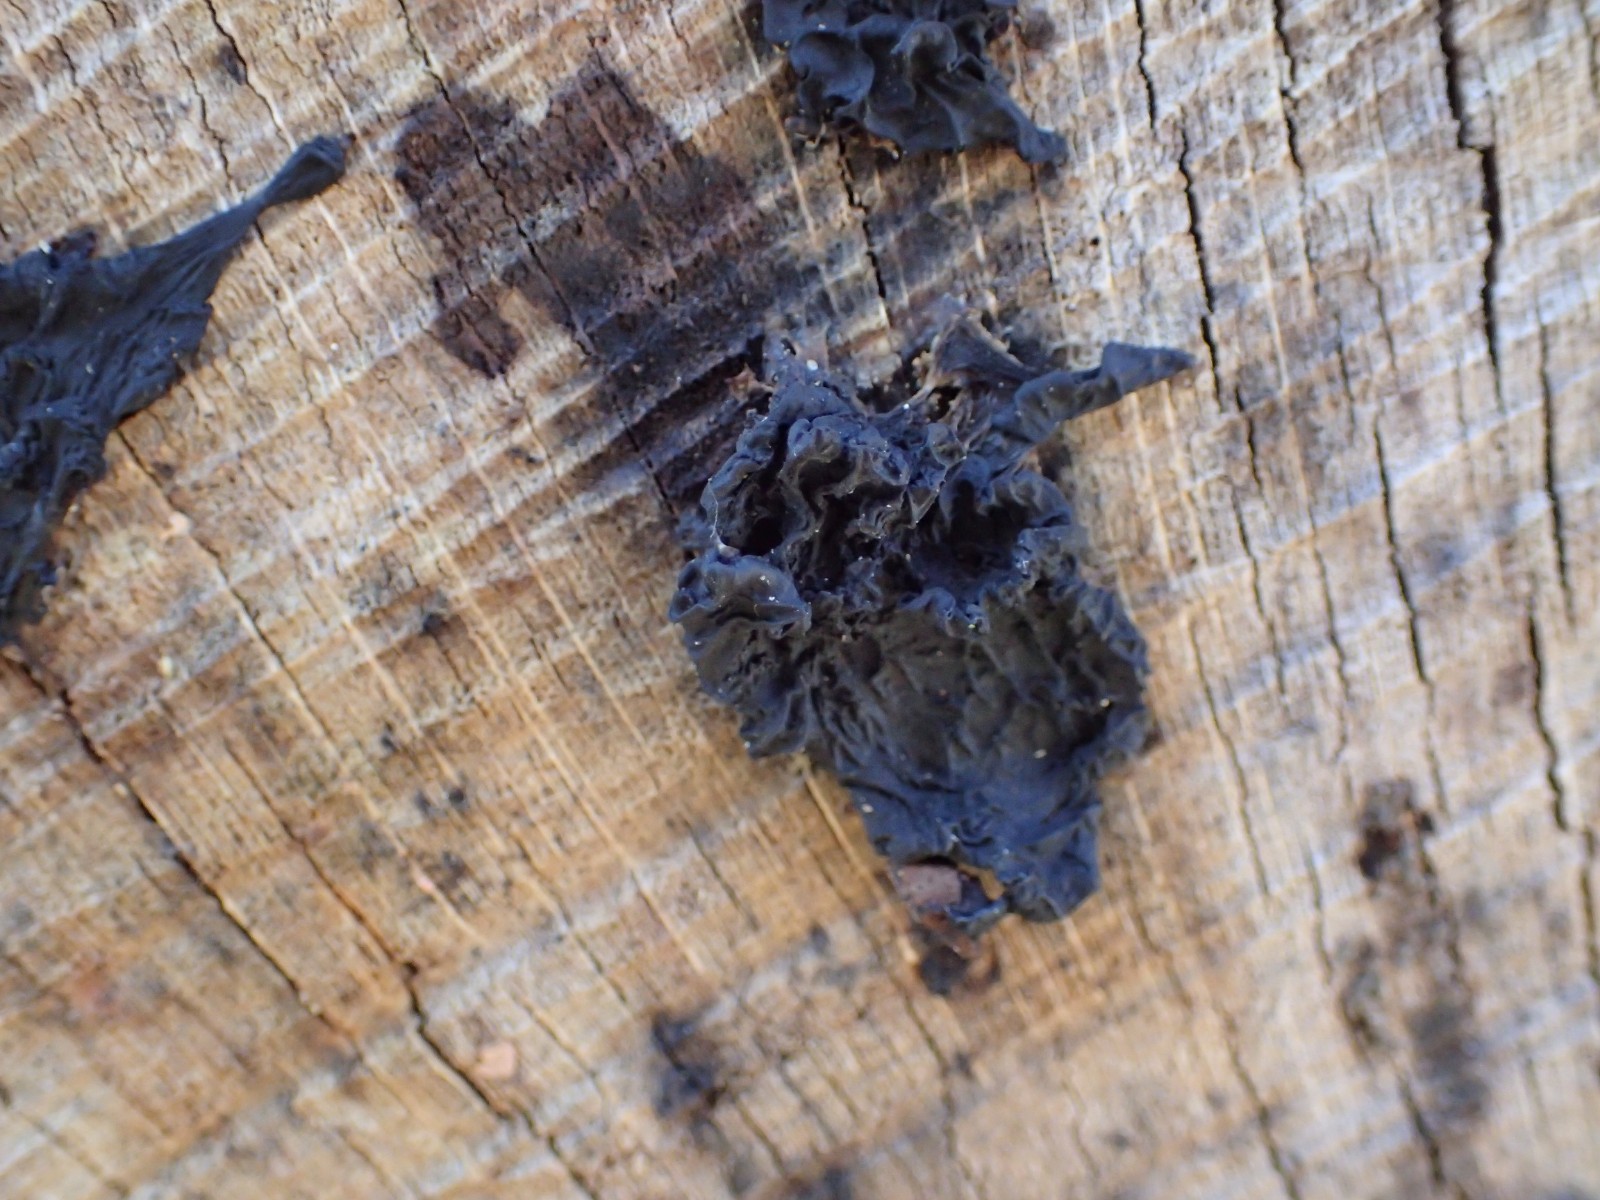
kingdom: Fungi
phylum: Basidiomycota
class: Agaricomycetes
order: Auriculariales
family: Auriculariaceae
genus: Exidia
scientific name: Exidia nigricans
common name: almindelig bævretop
